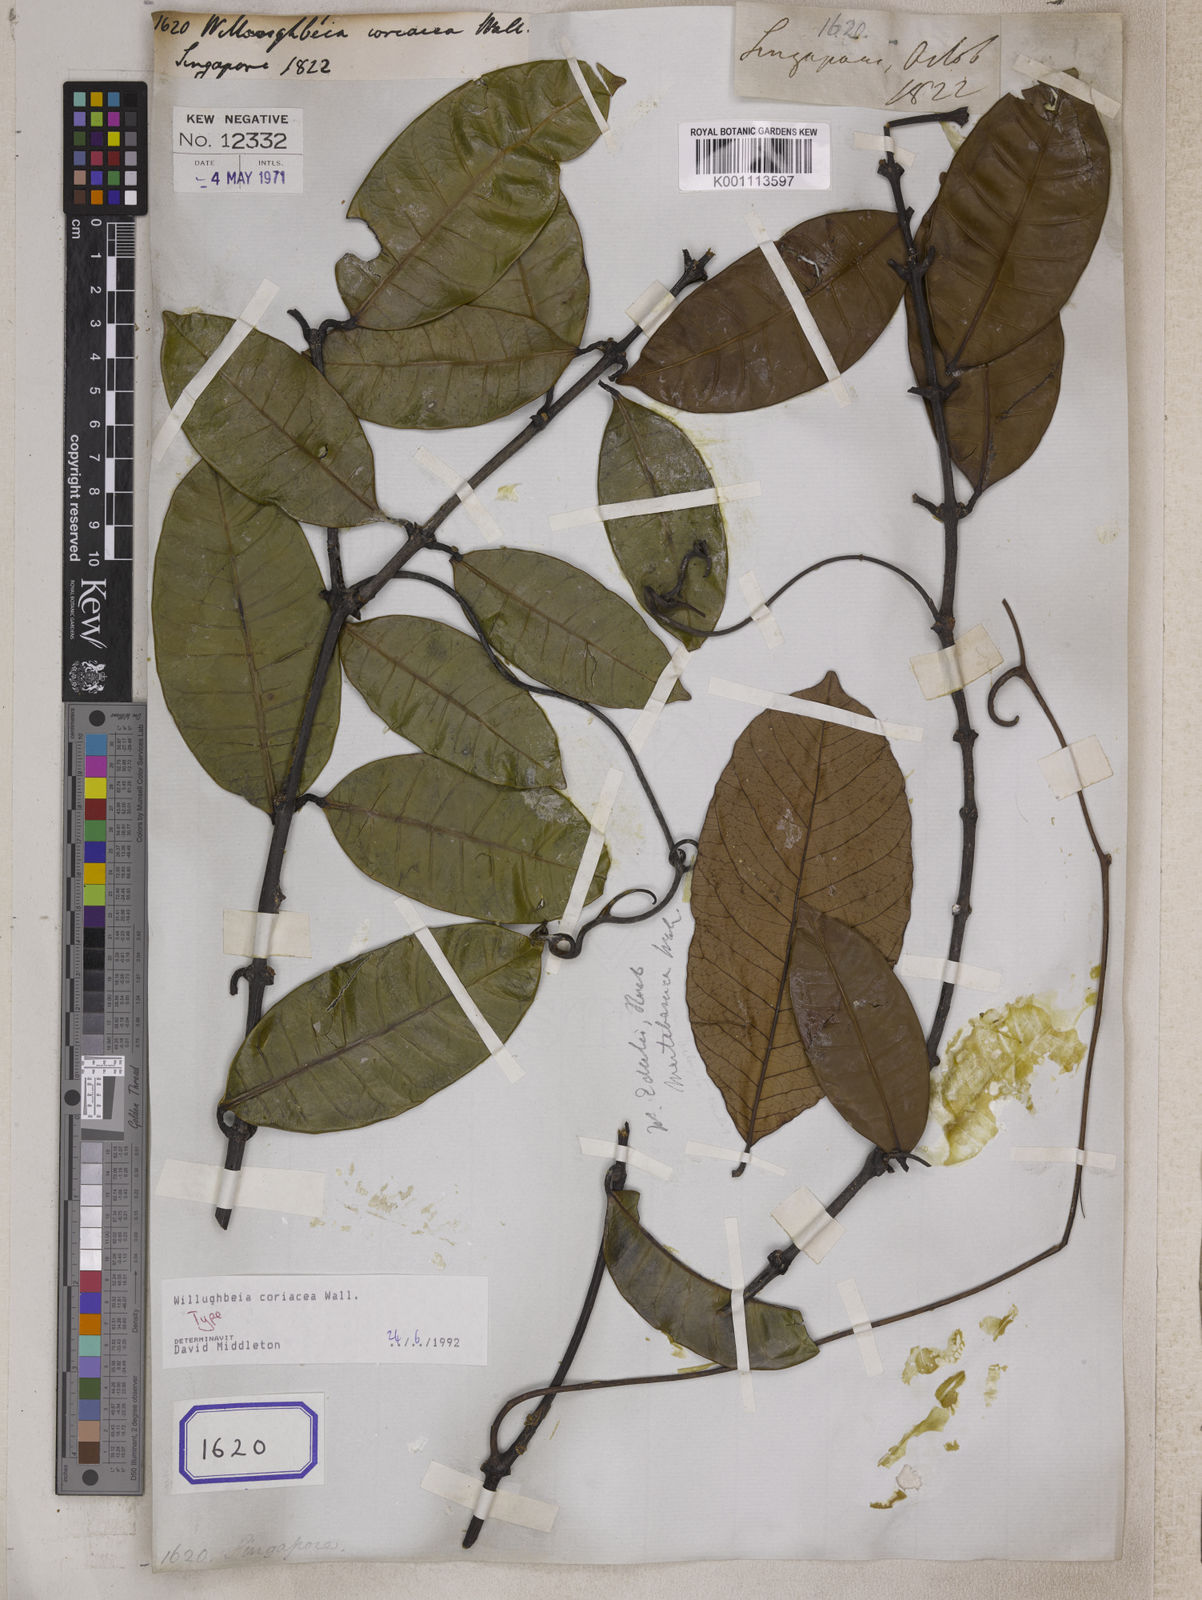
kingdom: Plantae
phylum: Tracheophyta
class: Magnoliopsida
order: Gentianales
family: Apocynaceae
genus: Willughbeia
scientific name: Willughbeia coriacea
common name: Borneo-rubber
